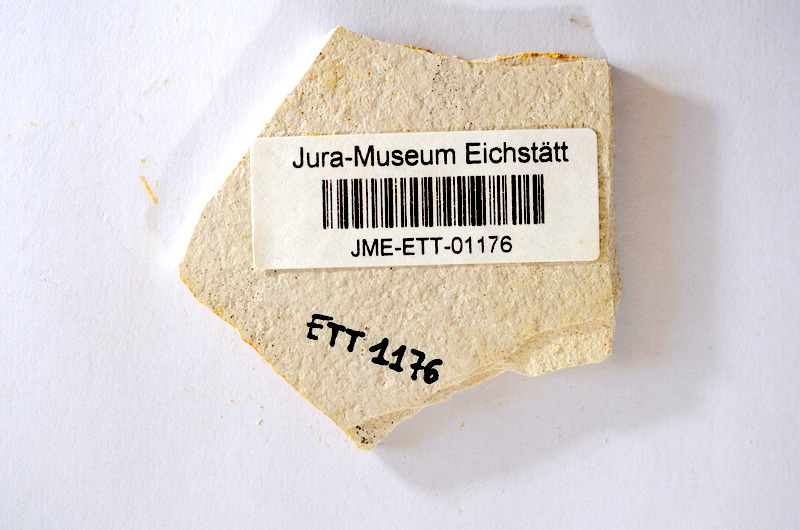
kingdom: Animalia
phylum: Chordata
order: Salmoniformes
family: Orthogonikleithridae
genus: Orthogonikleithrus
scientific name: Orthogonikleithrus hoelli
